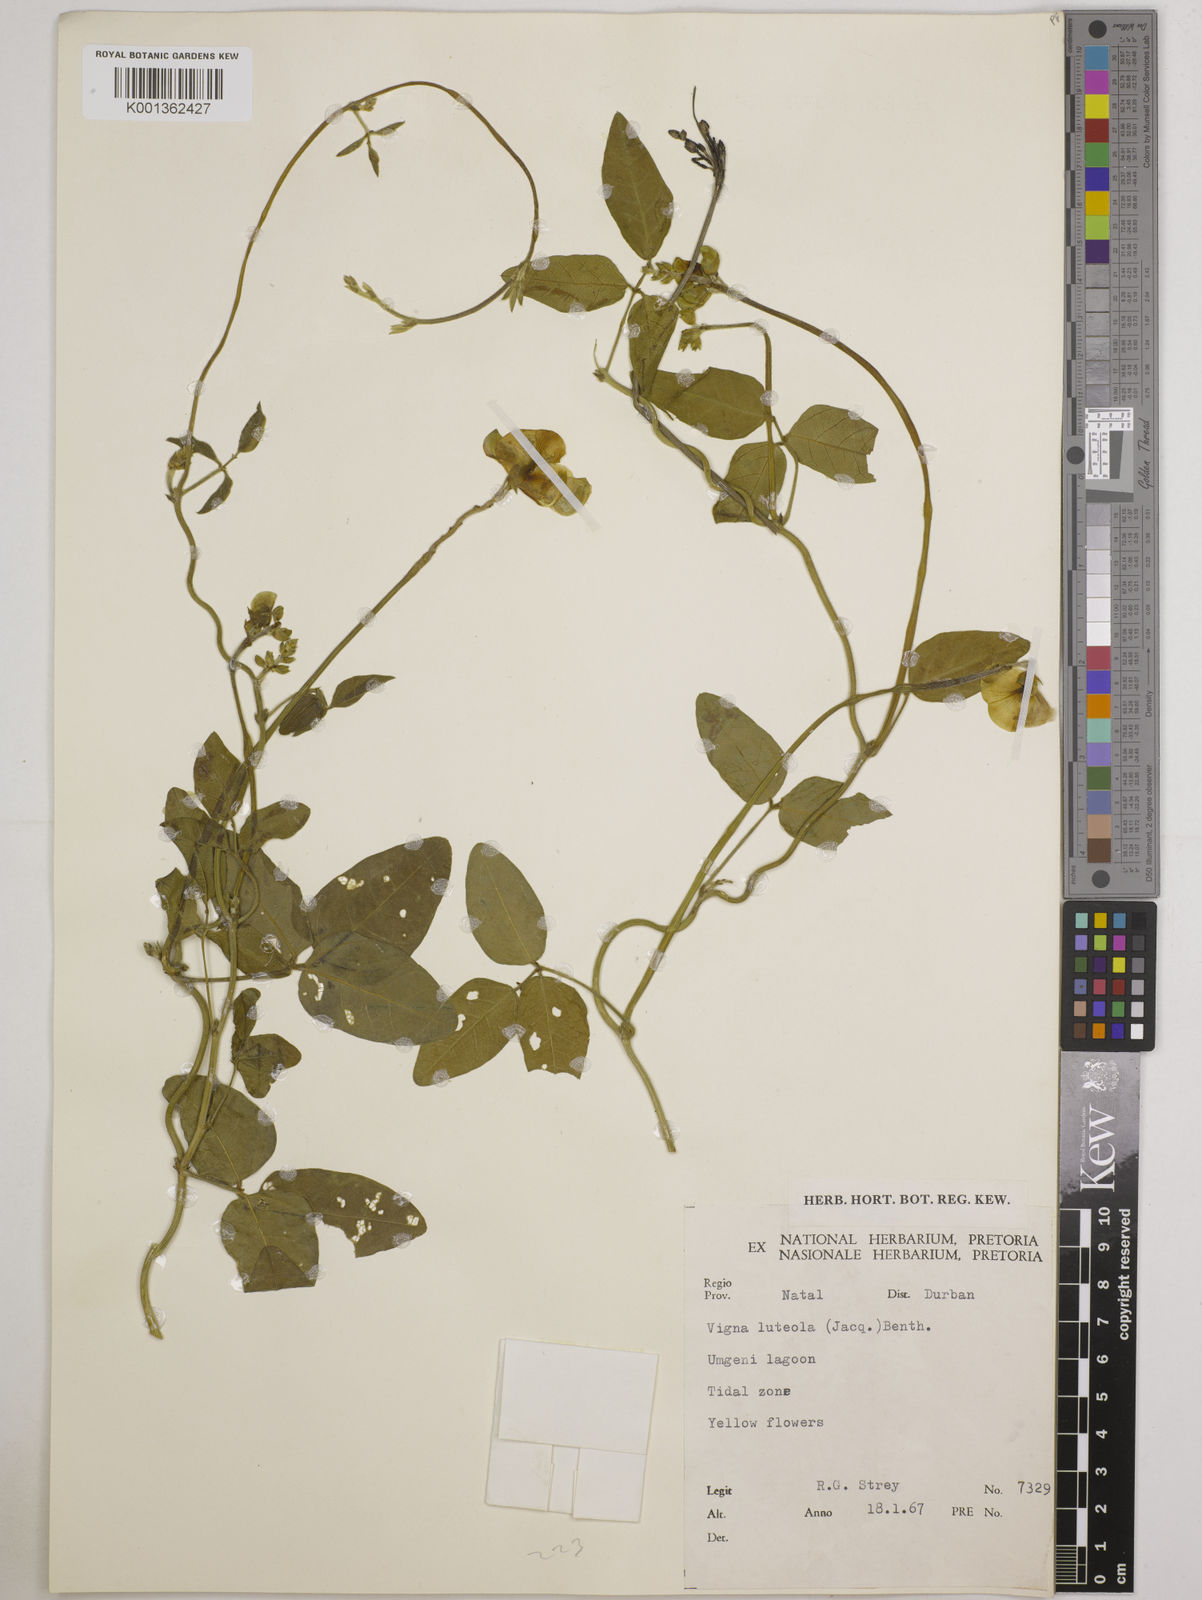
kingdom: Plantae
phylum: Tracheophyta
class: Magnoliopsida
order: Fabales
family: Fabaceae
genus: Vigna
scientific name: Vigna luteola
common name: Hairypod cowpea
